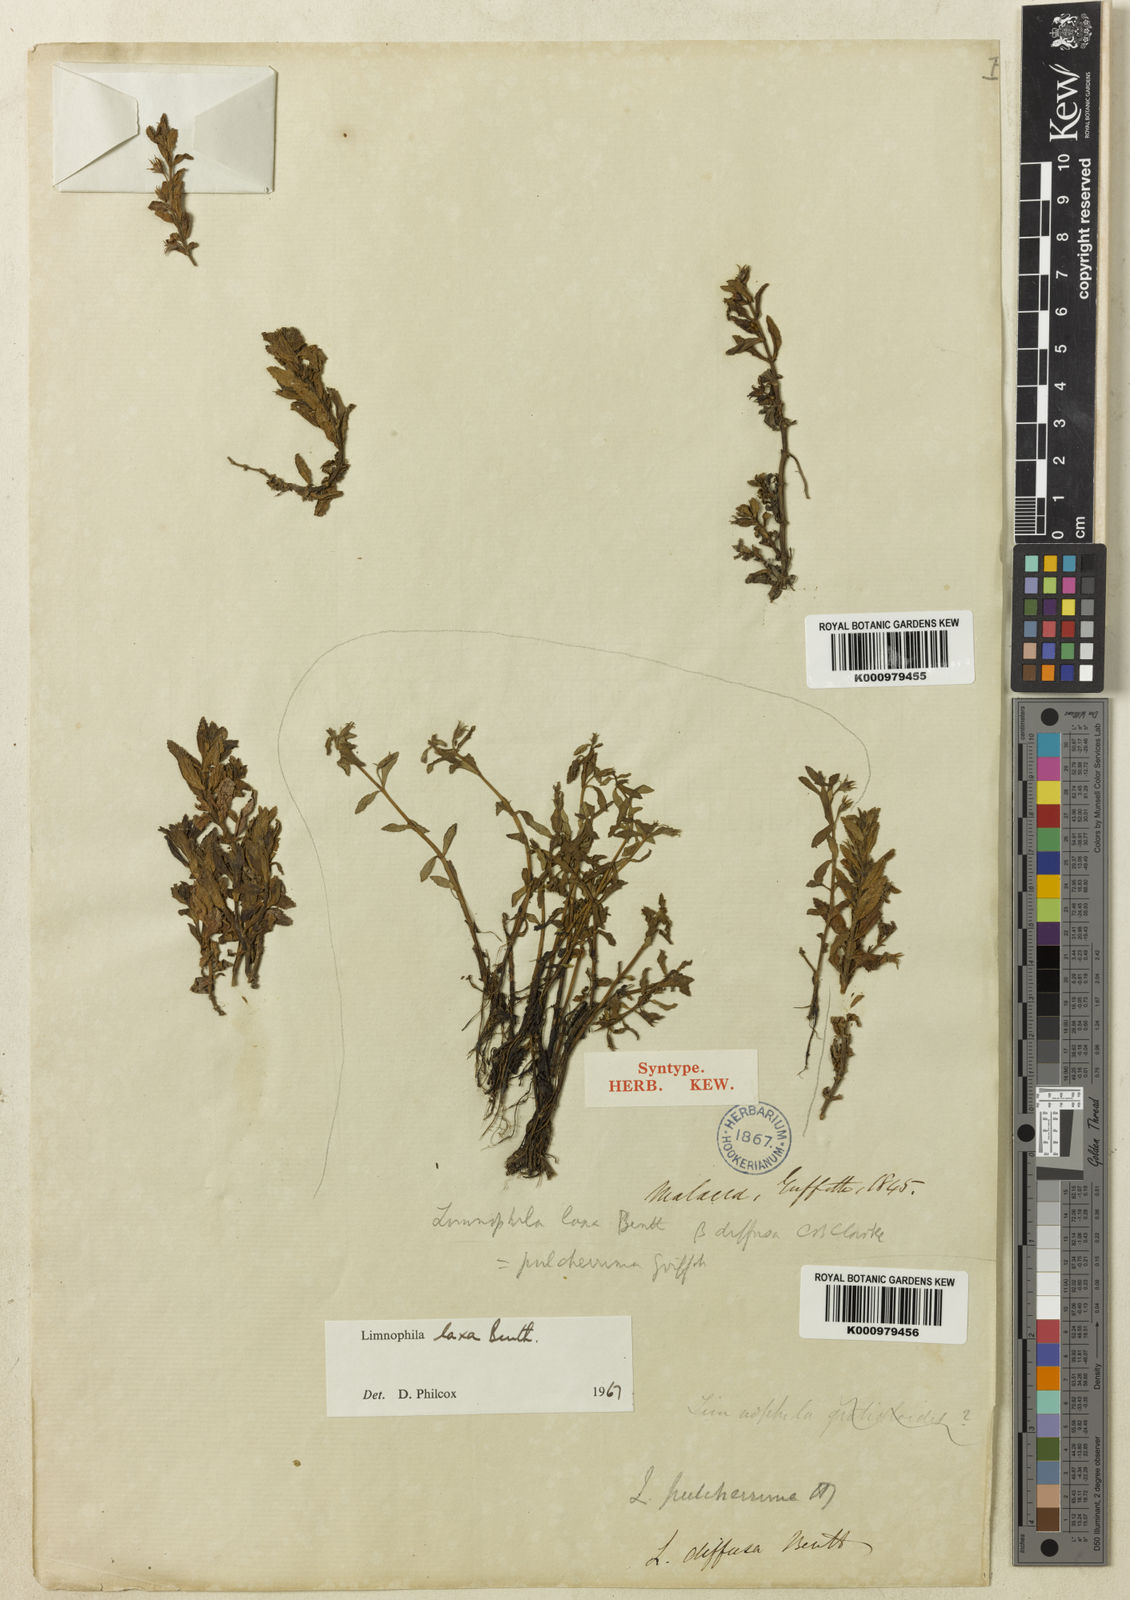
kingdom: Plantae
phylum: Tracheophyta
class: Magnoliopsida
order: Lamiales
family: Plantaginaceae
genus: Limnophila
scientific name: Limnophila laxa
